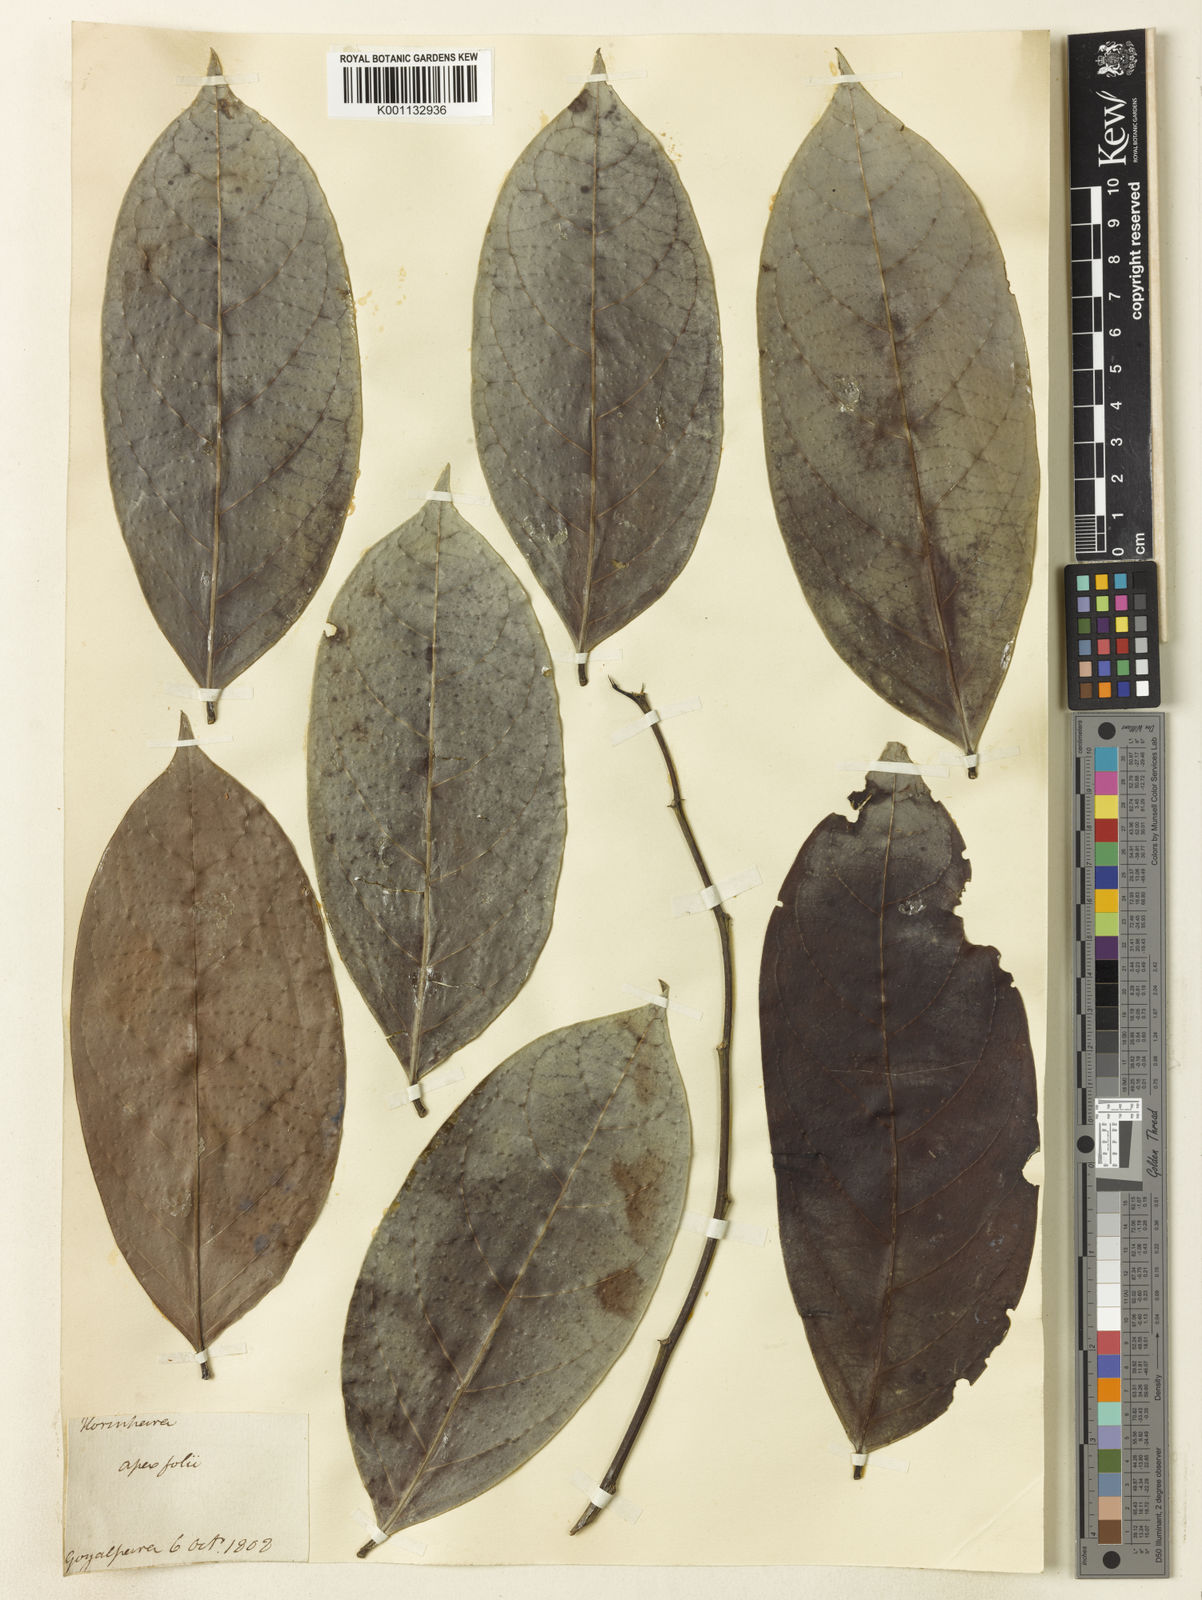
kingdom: Plantae
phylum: Tracheophyta
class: Magnoliopsida
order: Malpighiales
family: Phyllanthaceae
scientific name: Phyllanthaceae
